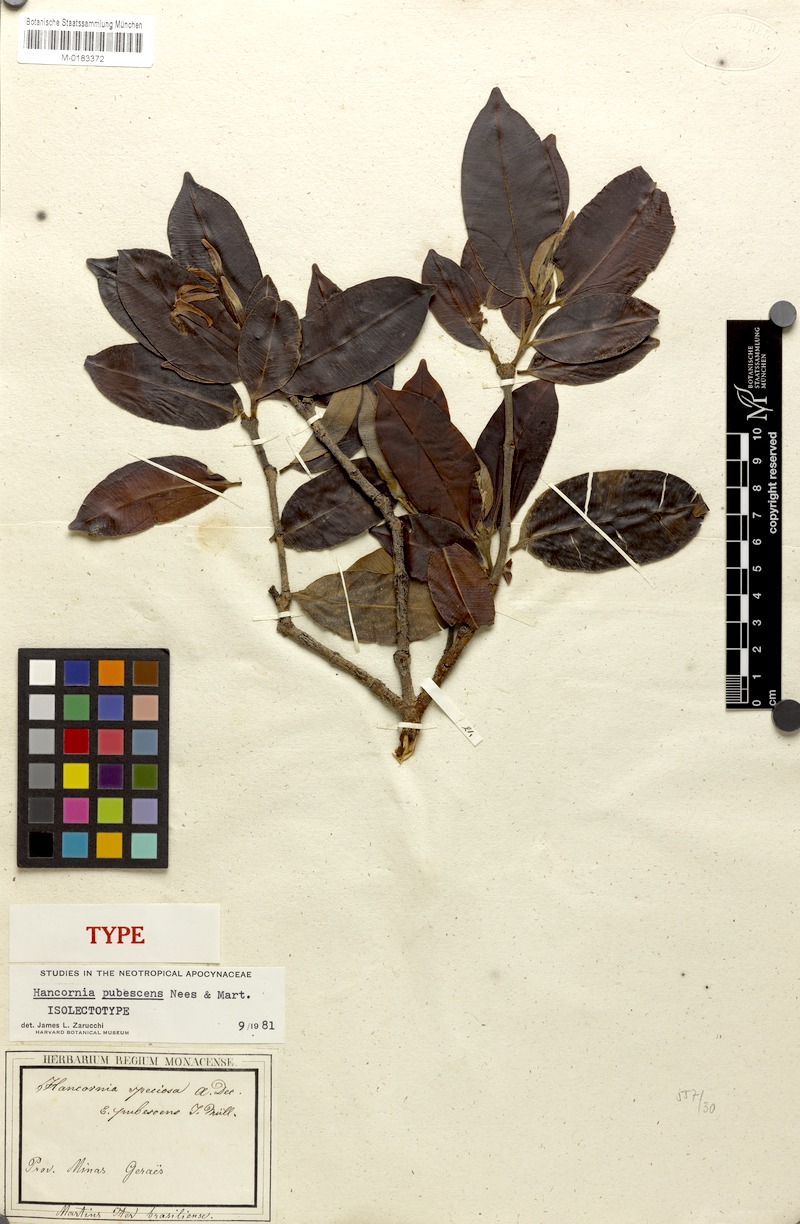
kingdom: Plantae
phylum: Tracheophyta
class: Magnoliopsida
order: Gentianales
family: Apocynaceae
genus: Hancornia
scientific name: Hancornia speciosa
